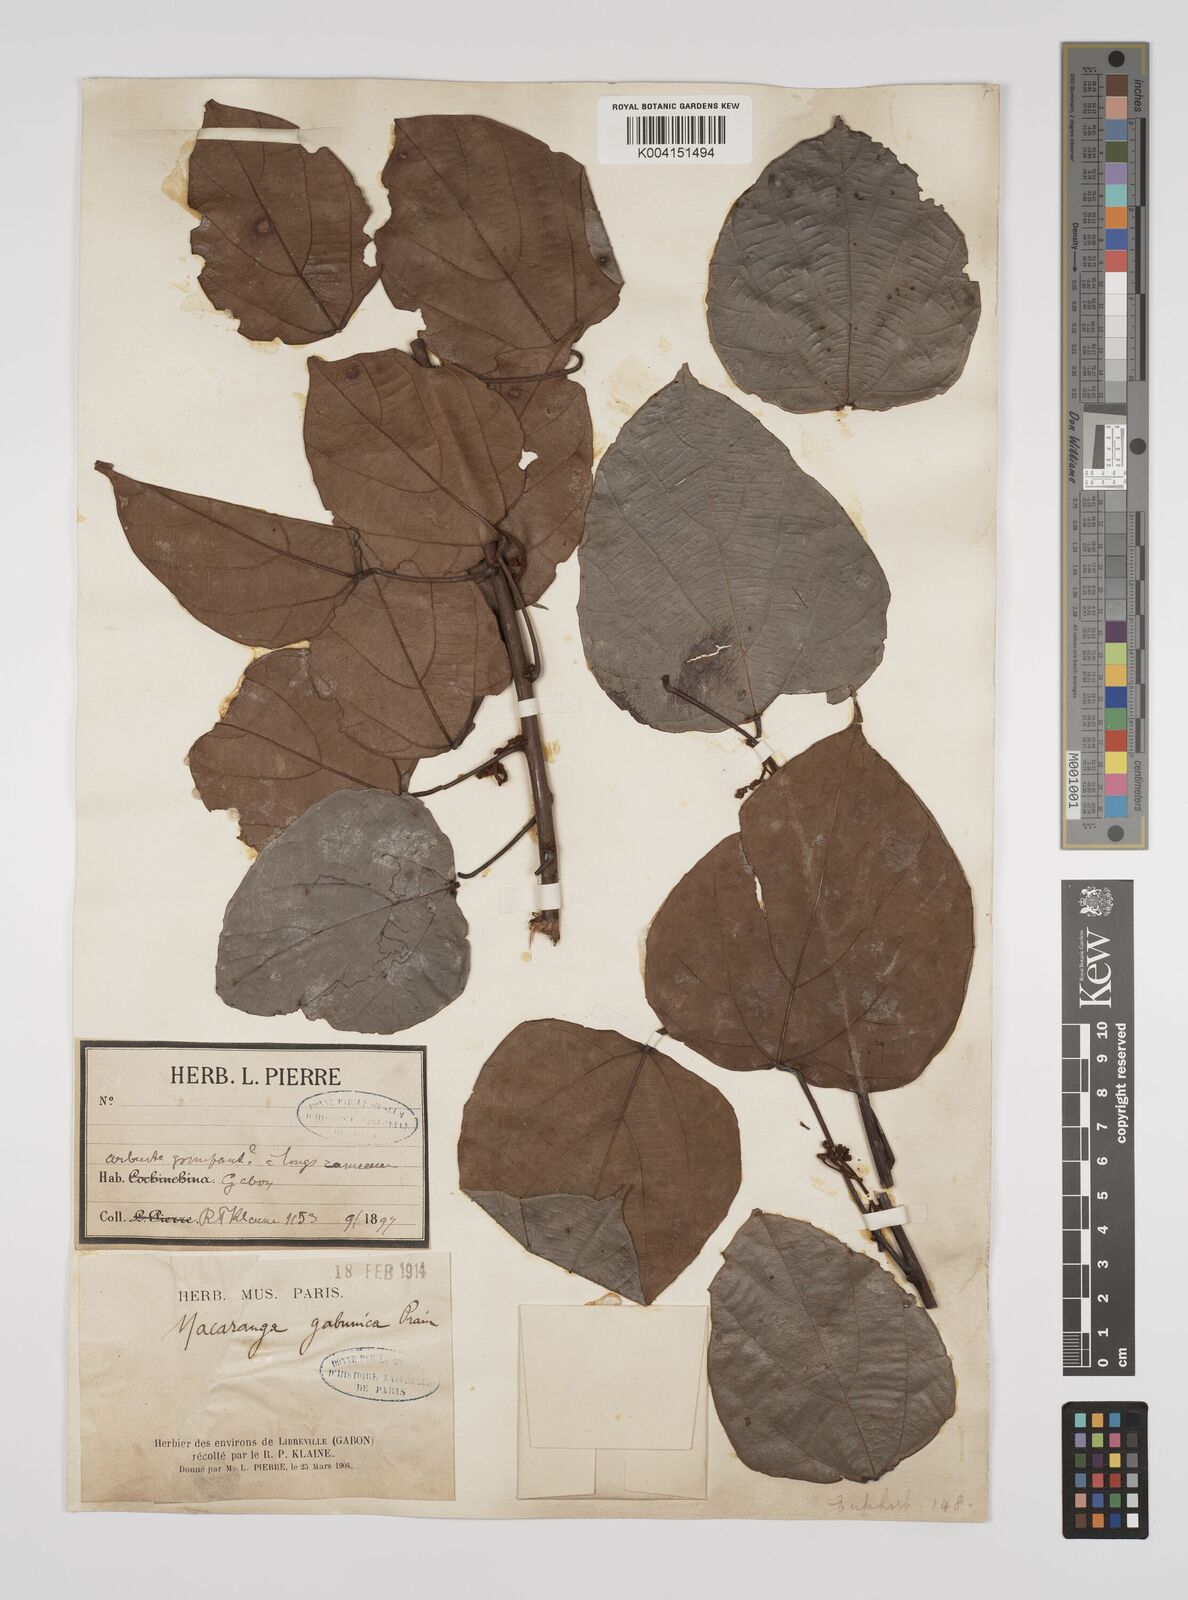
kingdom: Plantae
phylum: Tracheophyta
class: Magnoliopsida
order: Malpighiales
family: Euphorbiaceae
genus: Macaranga
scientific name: Macaranga gabunica
